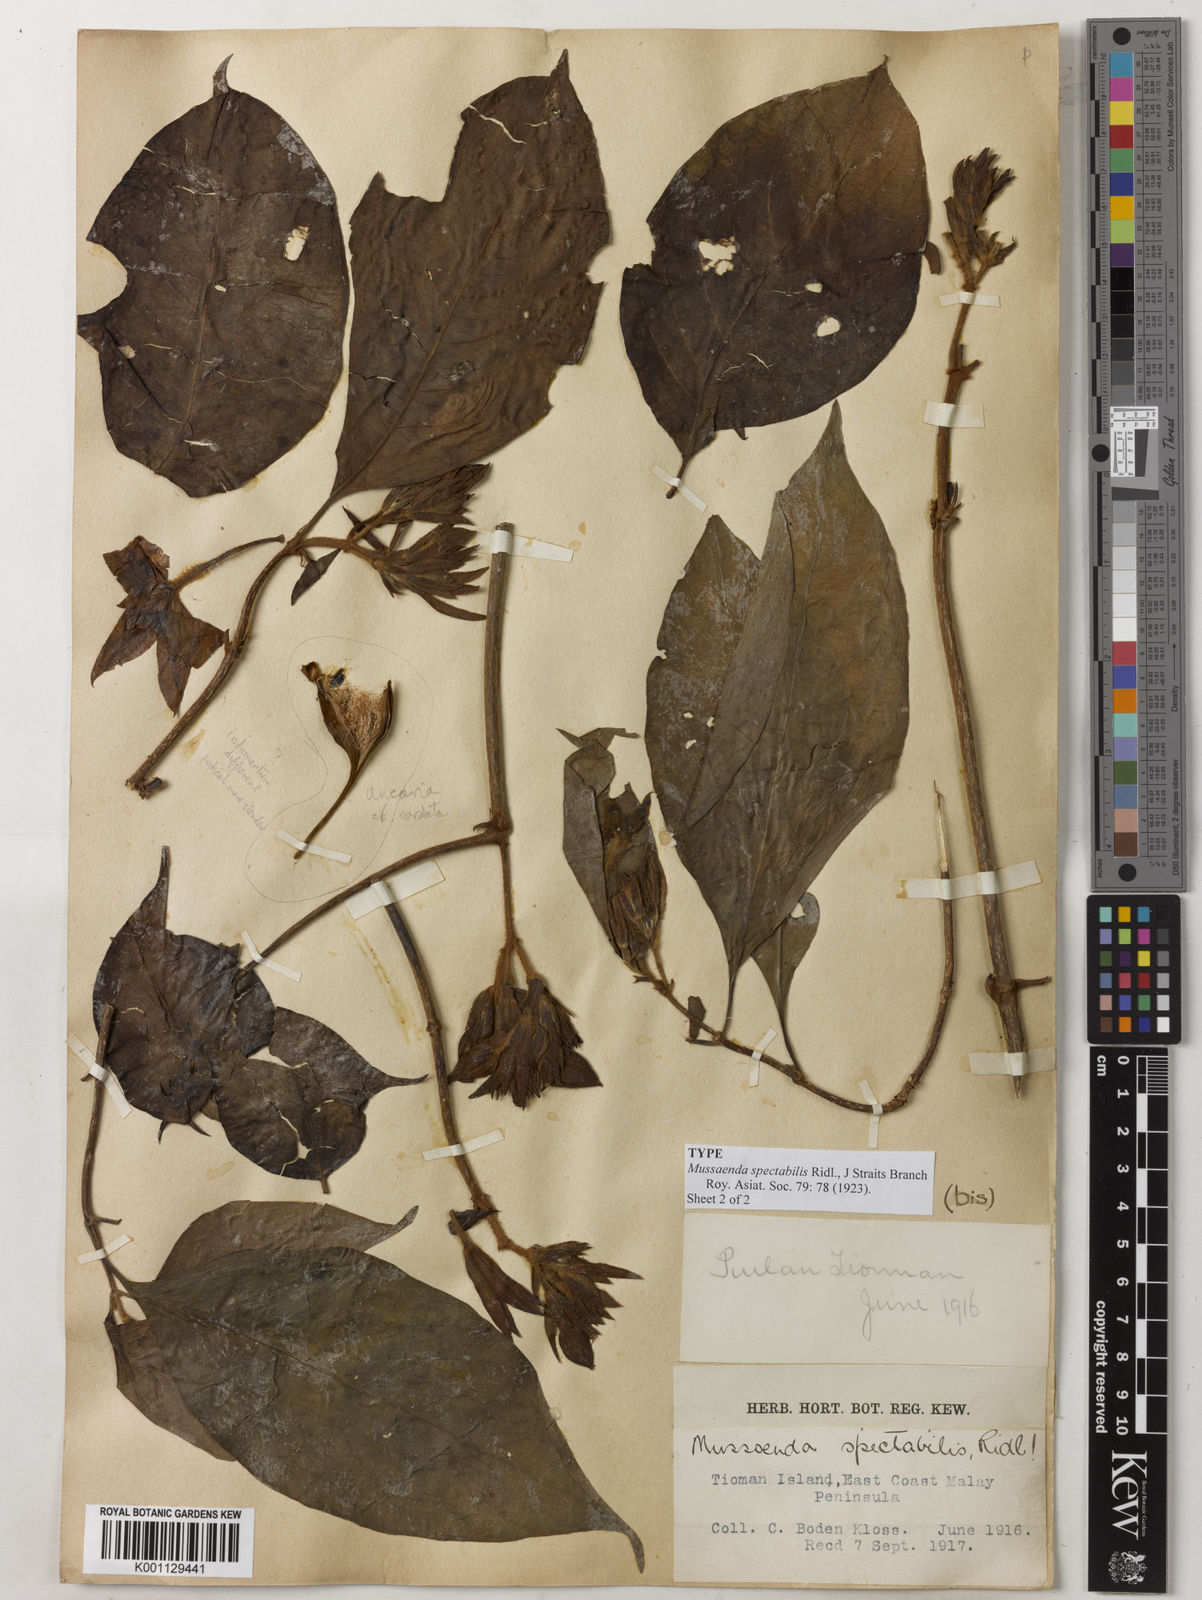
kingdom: Plantae
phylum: Tracheophyta
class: Magnoliopsida
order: Gentianales
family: Rubiaceae
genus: Mussaenda
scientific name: Mussaenda spectabilis
